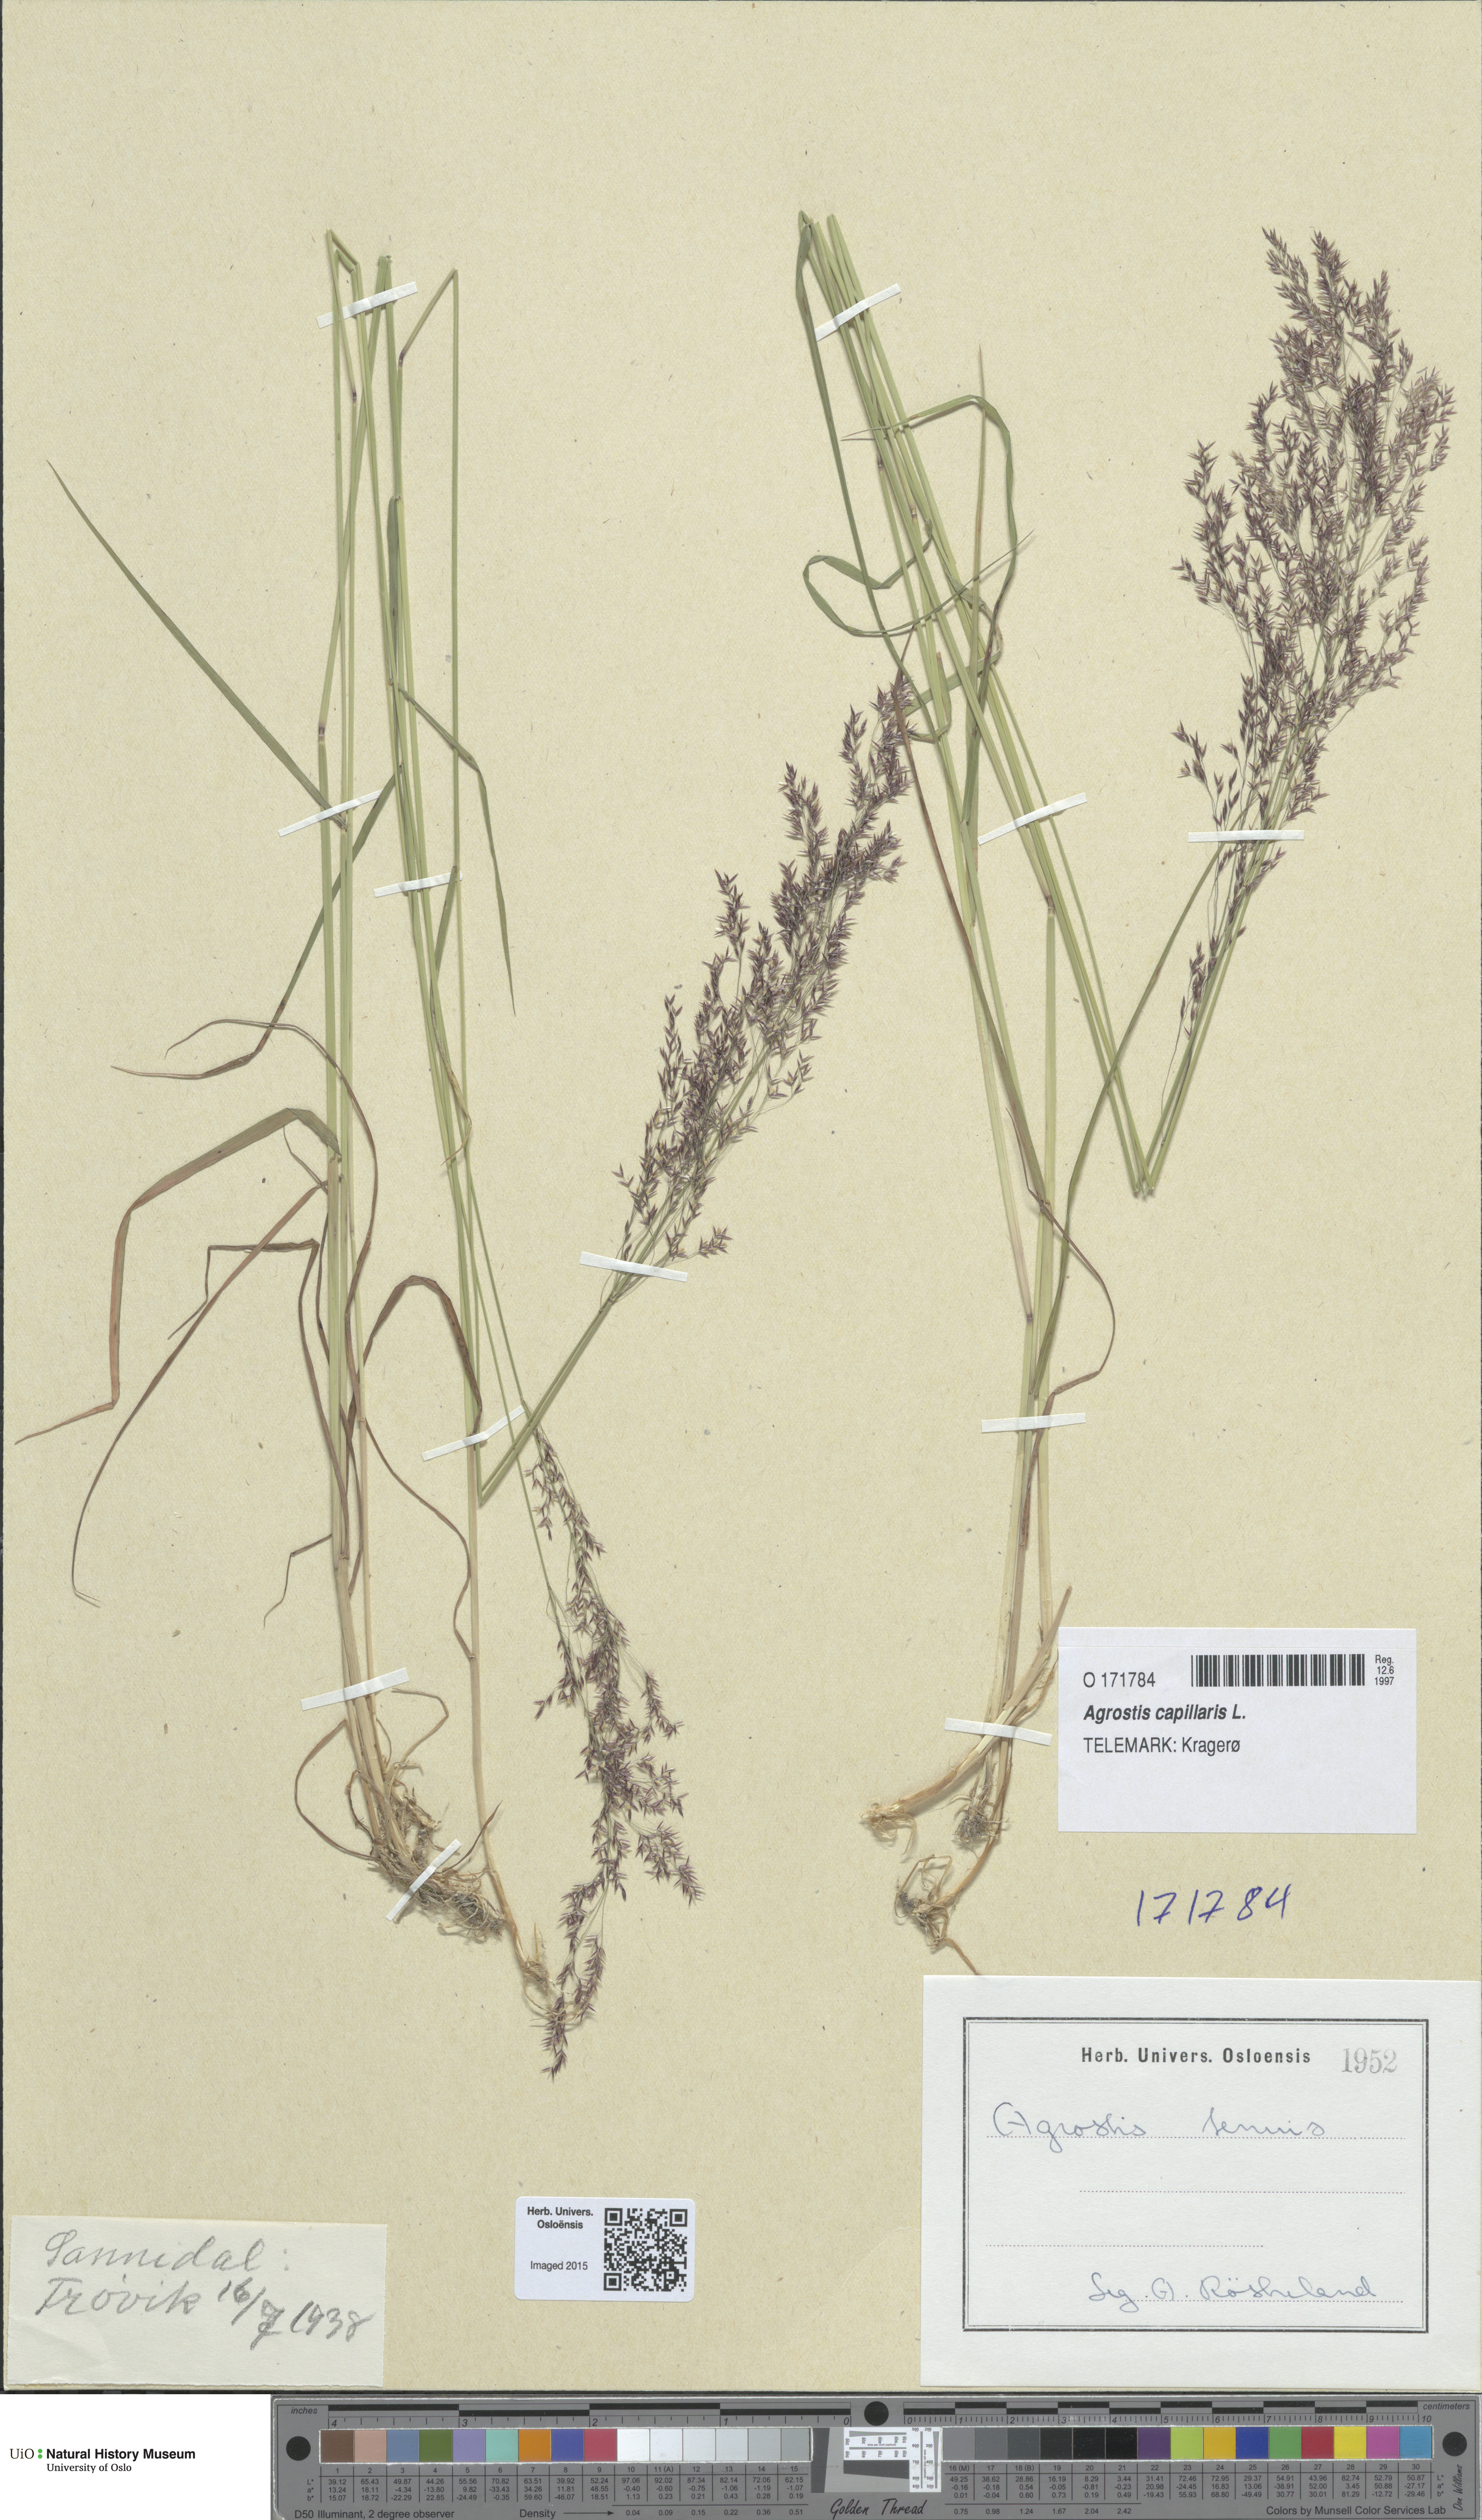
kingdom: Plantae
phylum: Tracheophyta
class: Liliopsida
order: Poales
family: Poaceae
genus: Agrostis
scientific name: Agrostis capillaris
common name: Colonial bentgrass
